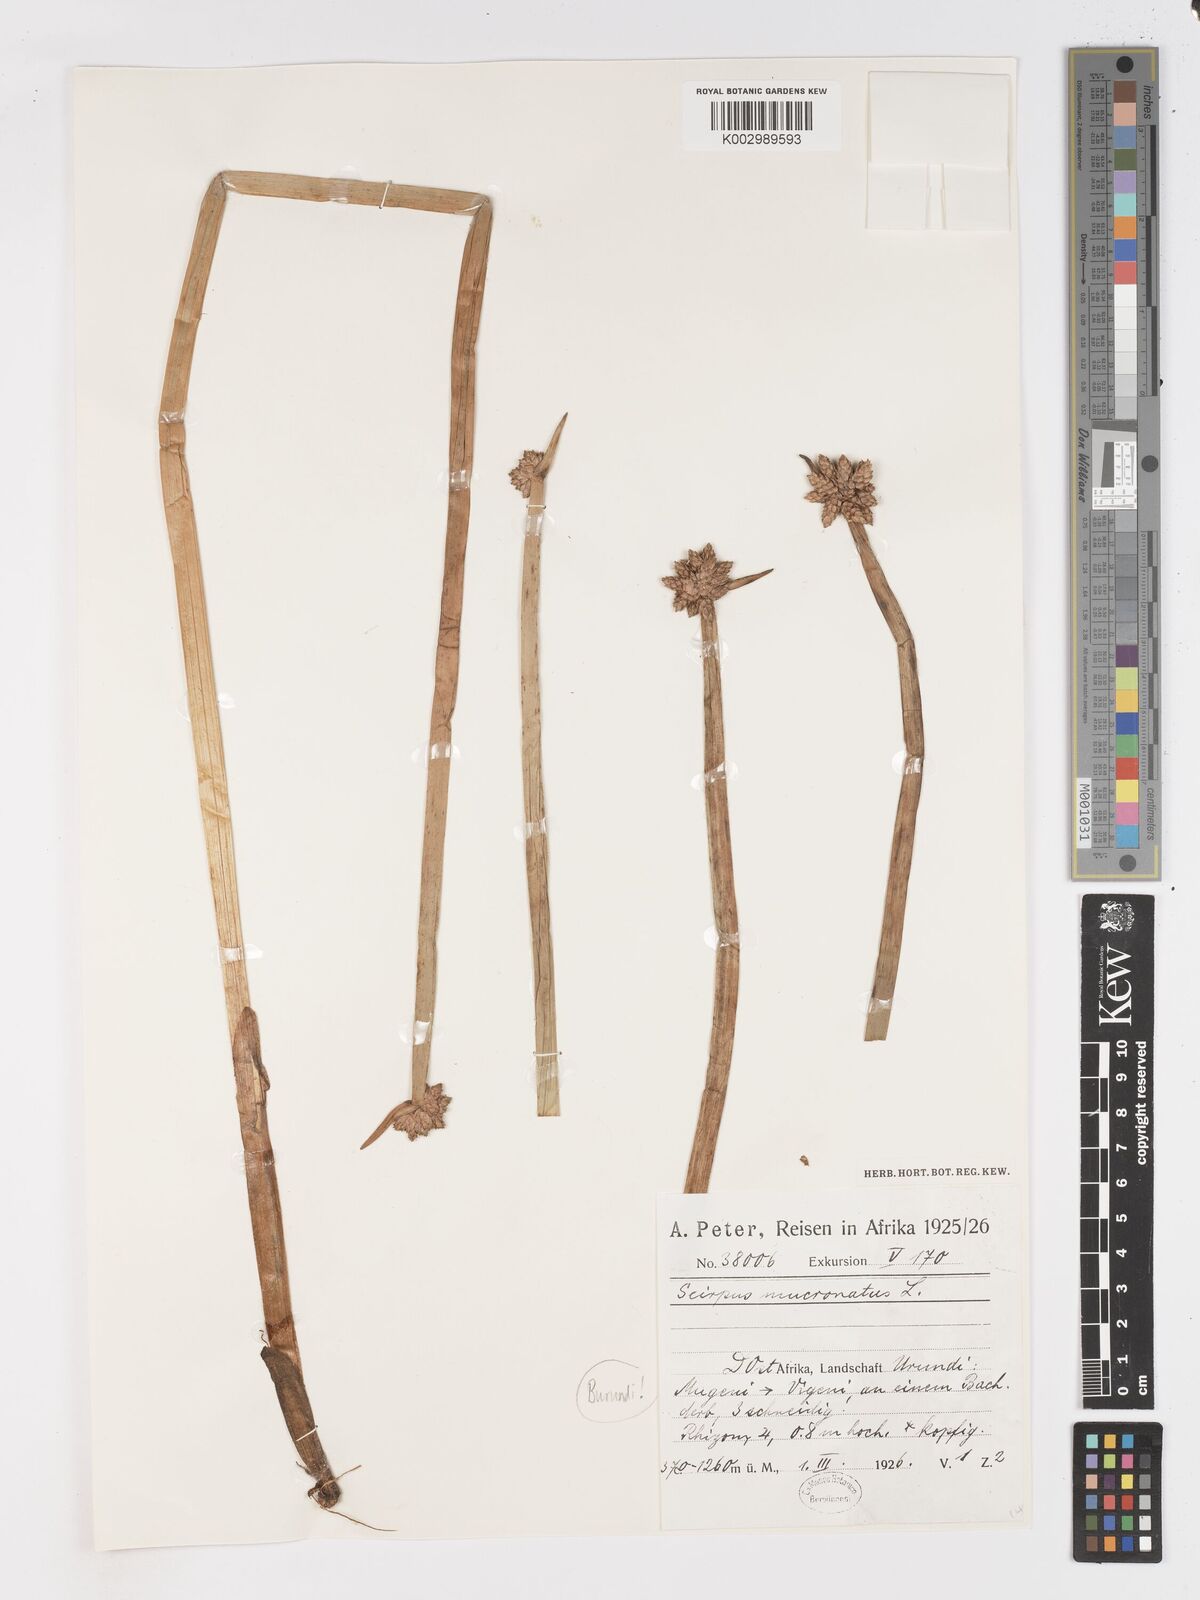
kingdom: Plantae
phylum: Tracheophyta
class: Liliopsida
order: Poales
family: Cyperaceae
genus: Schoenoplectiella
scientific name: Schoenoplectiella mucronata
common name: Bog bulrush
